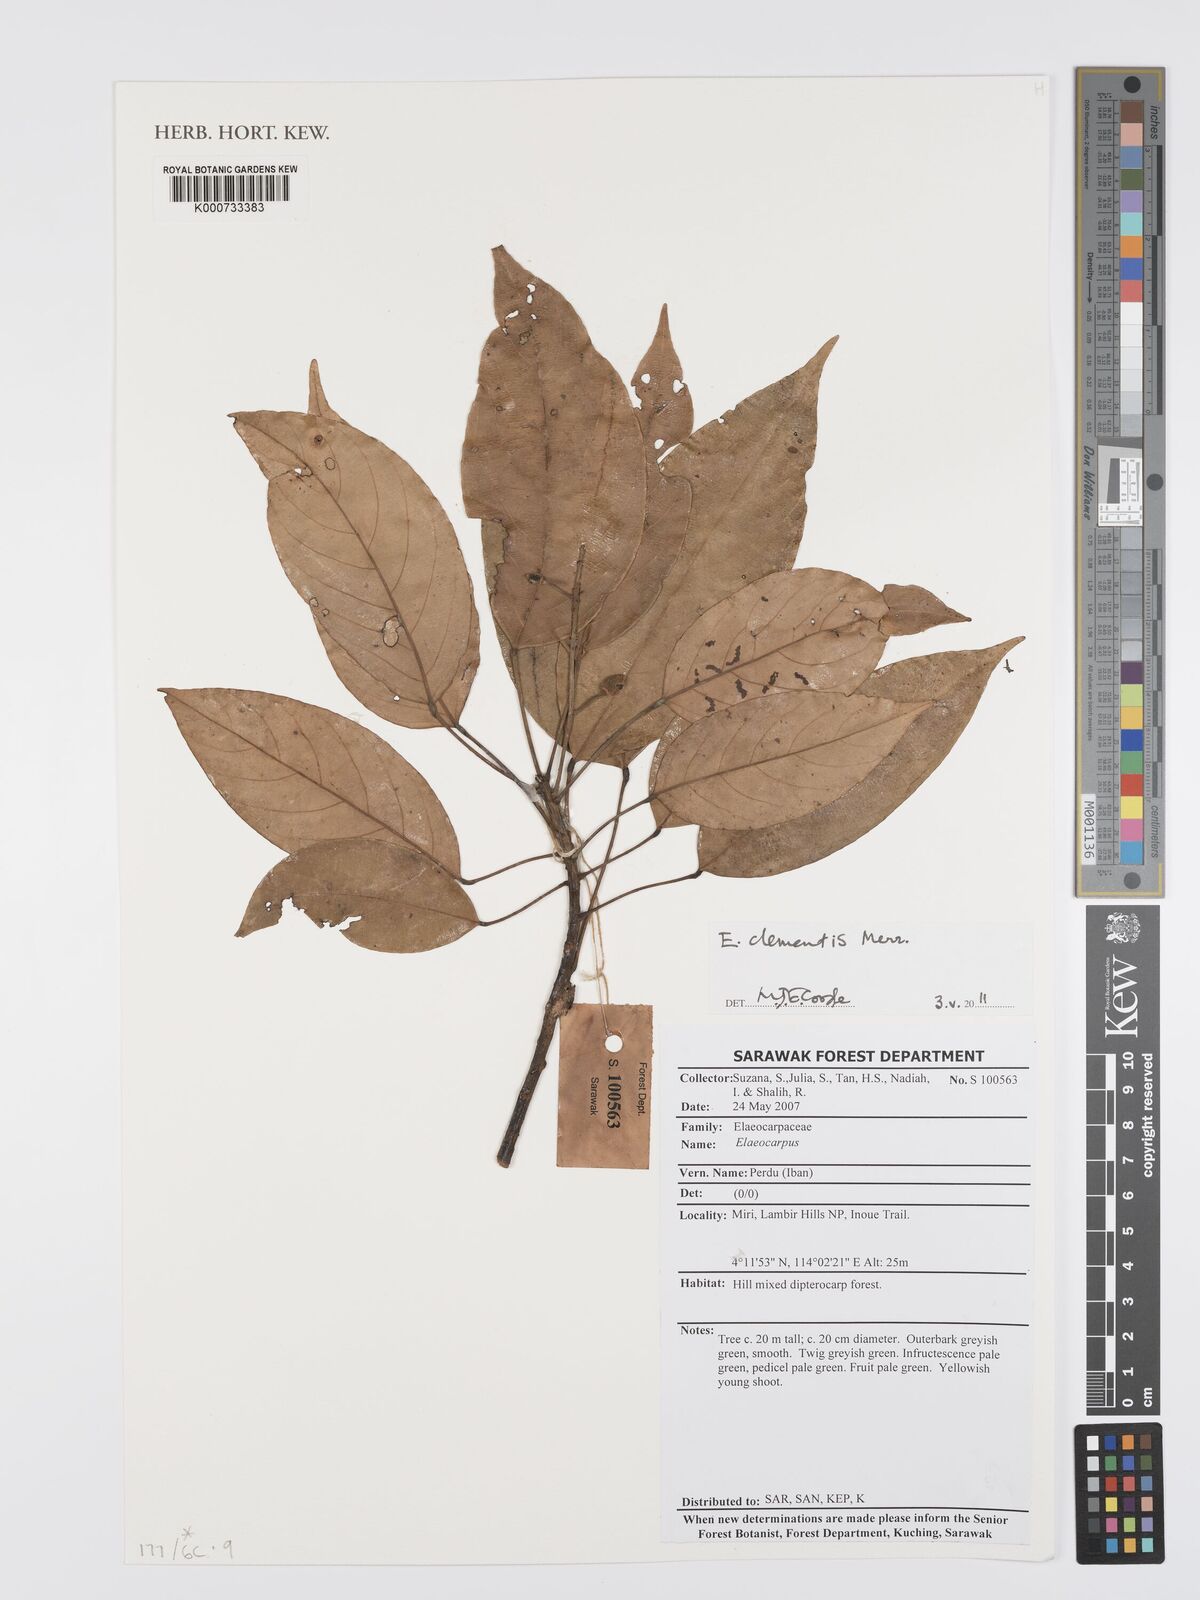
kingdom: Plantae
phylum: Tracheophyta
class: Magnoliopsida
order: Oxalidales
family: Elaeocarpaceae
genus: Elaeocarpus
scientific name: Elaeocarpus clementis
